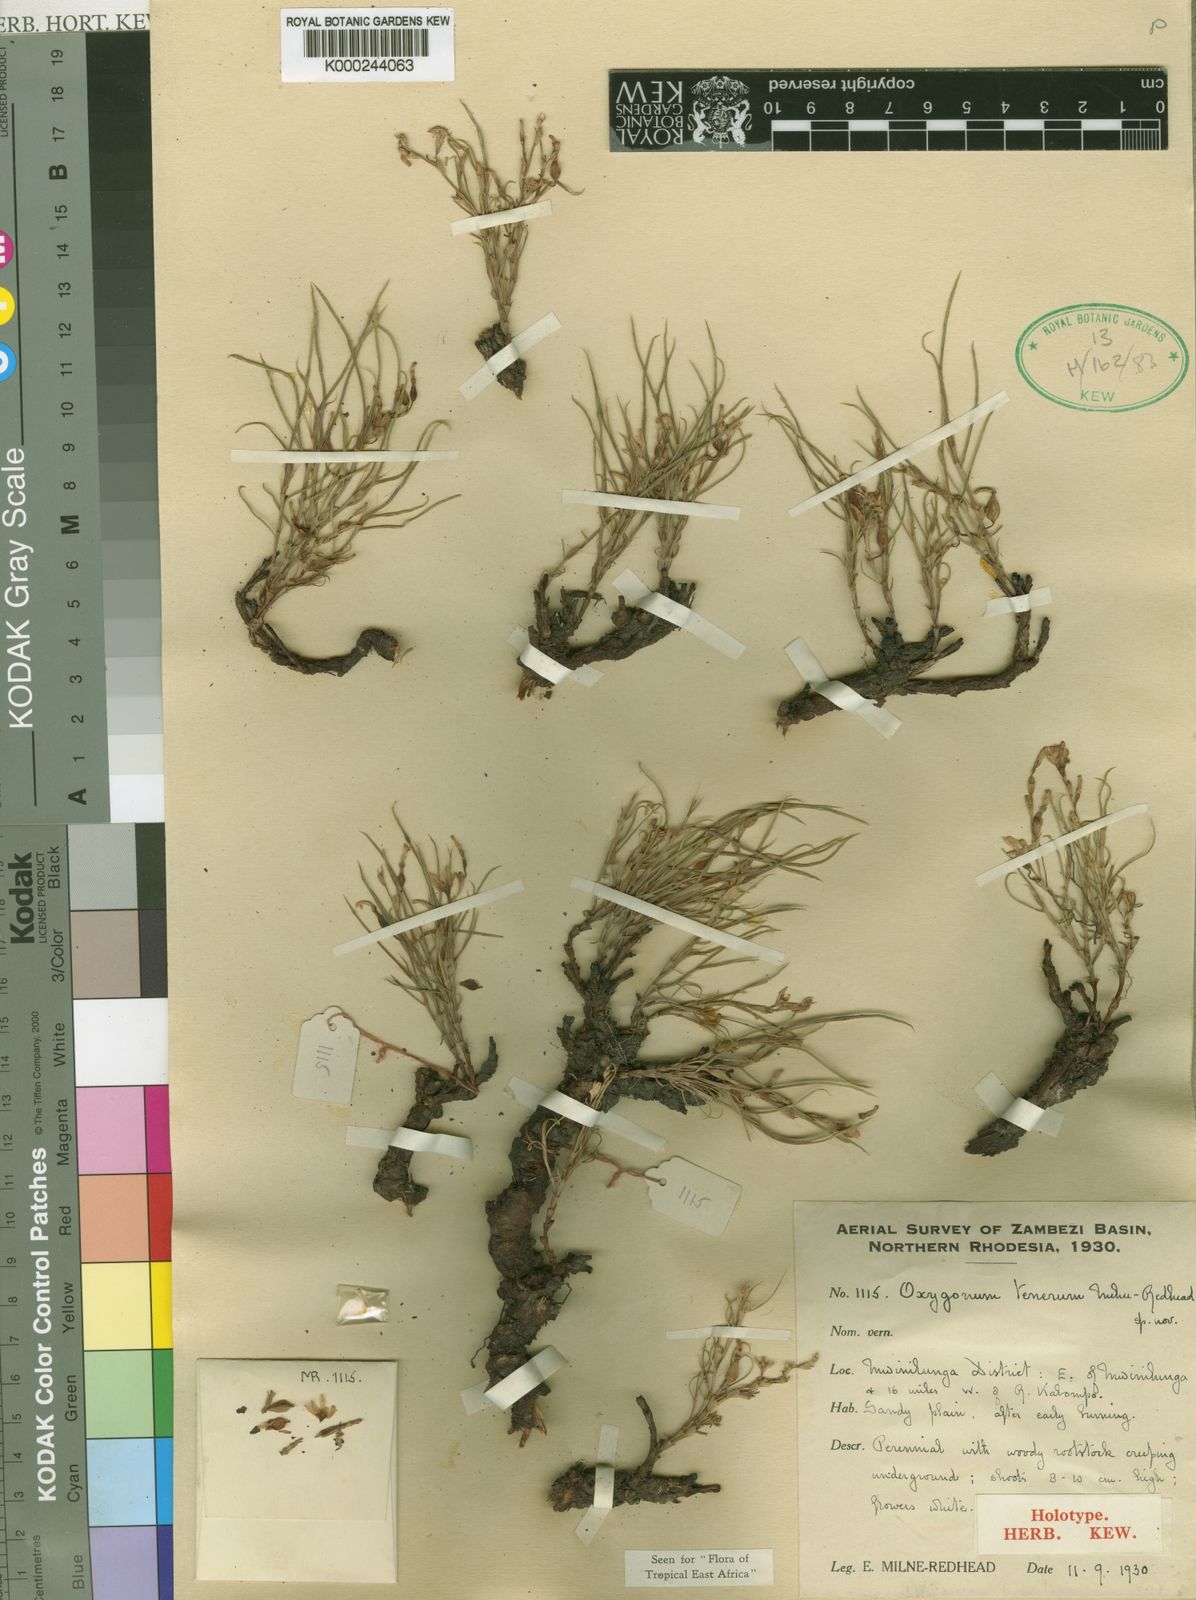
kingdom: Plantae
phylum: Tracheophyta
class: Magnoliopsida
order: Caryophyllales
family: Polygonaceae
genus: Oxygonum
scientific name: Oxygonum tenerum
